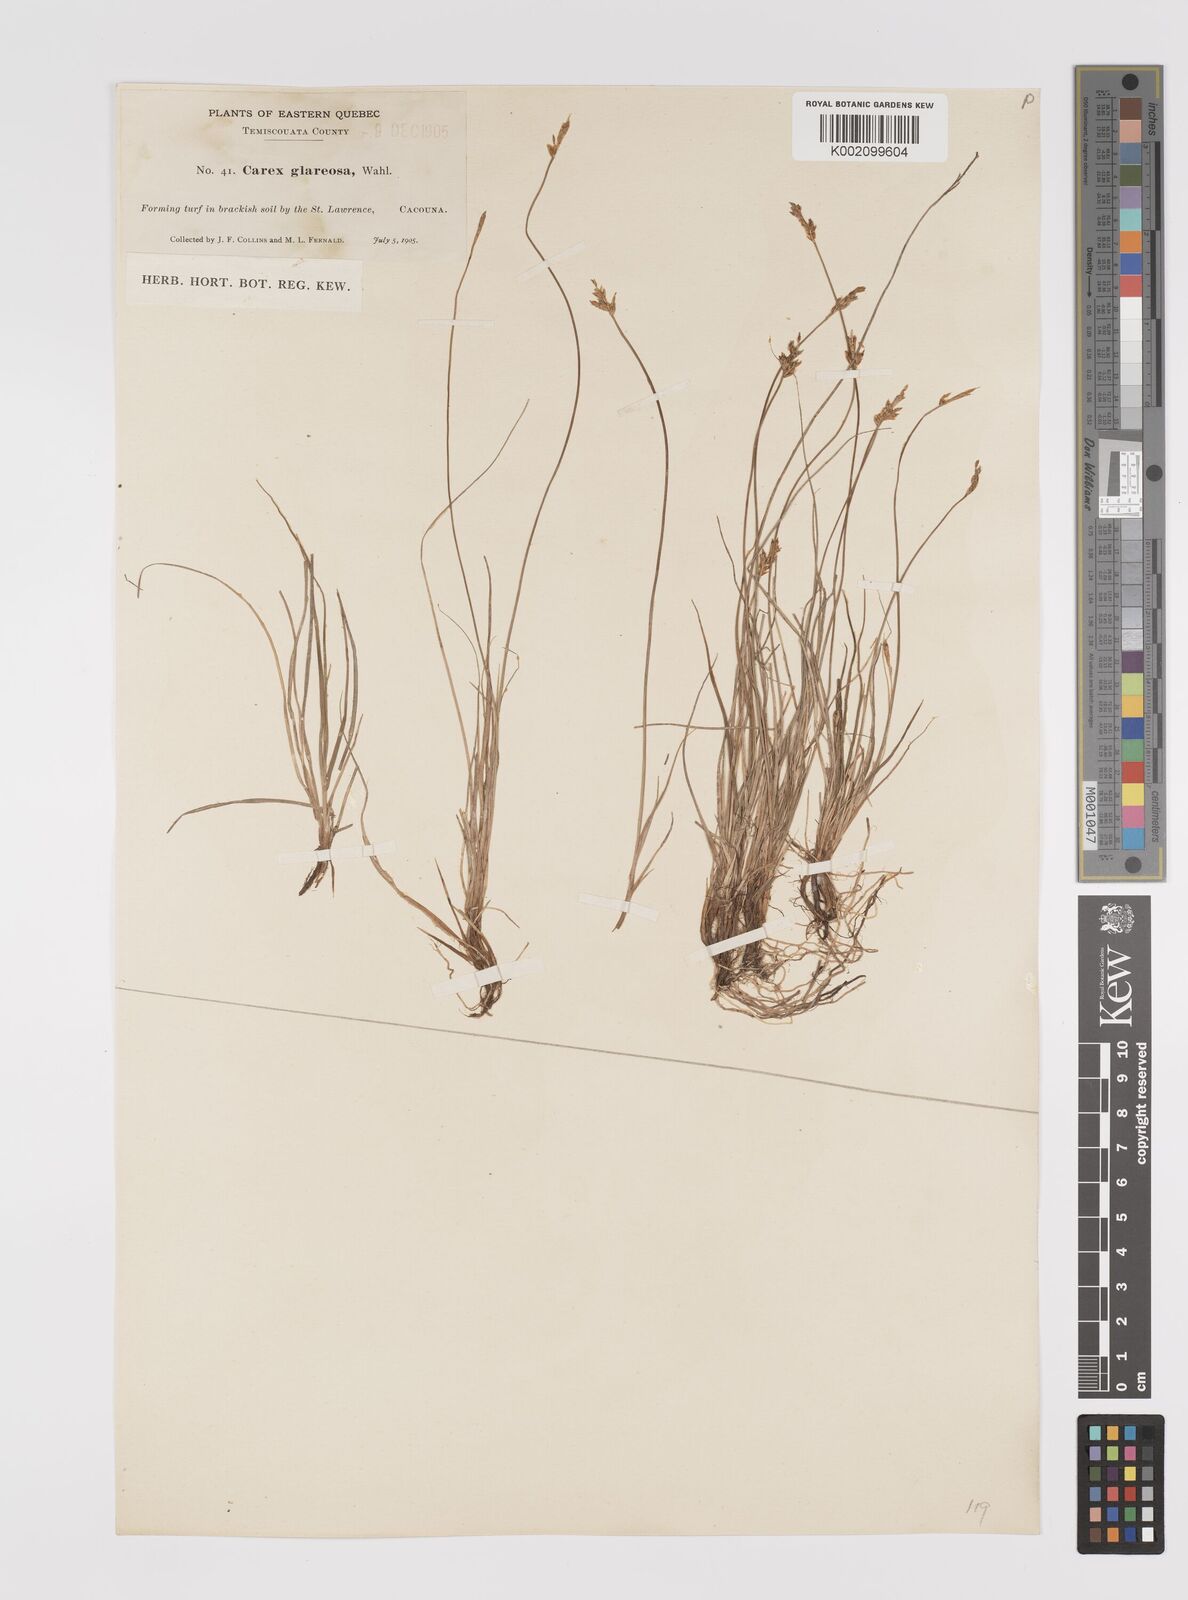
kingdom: Plantae
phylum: Tracheophyta
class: Liliopsida
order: Poales
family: Cyperaceae
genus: Carex
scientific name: Carex glareosa
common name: Clustered sedge
